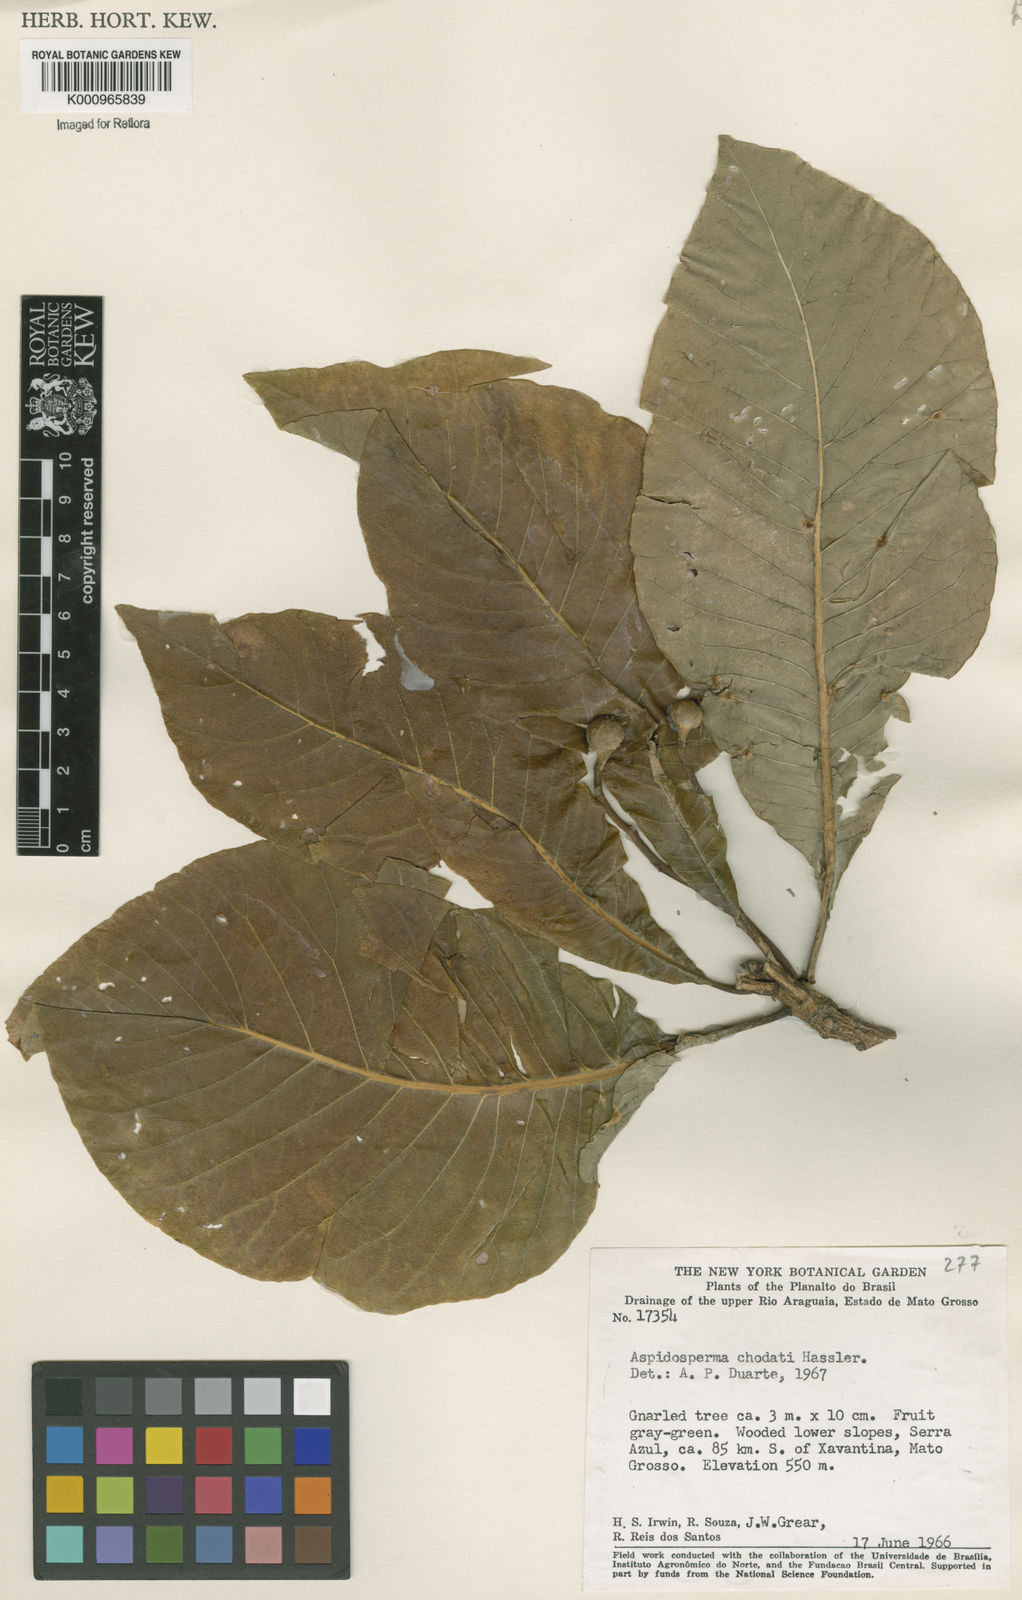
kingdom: Plantae
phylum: Tracheophyta
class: Magnoliopsida
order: Gentianales
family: Apocynaceae
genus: Aspidosperma
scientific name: Aspidosperma tomentosum
